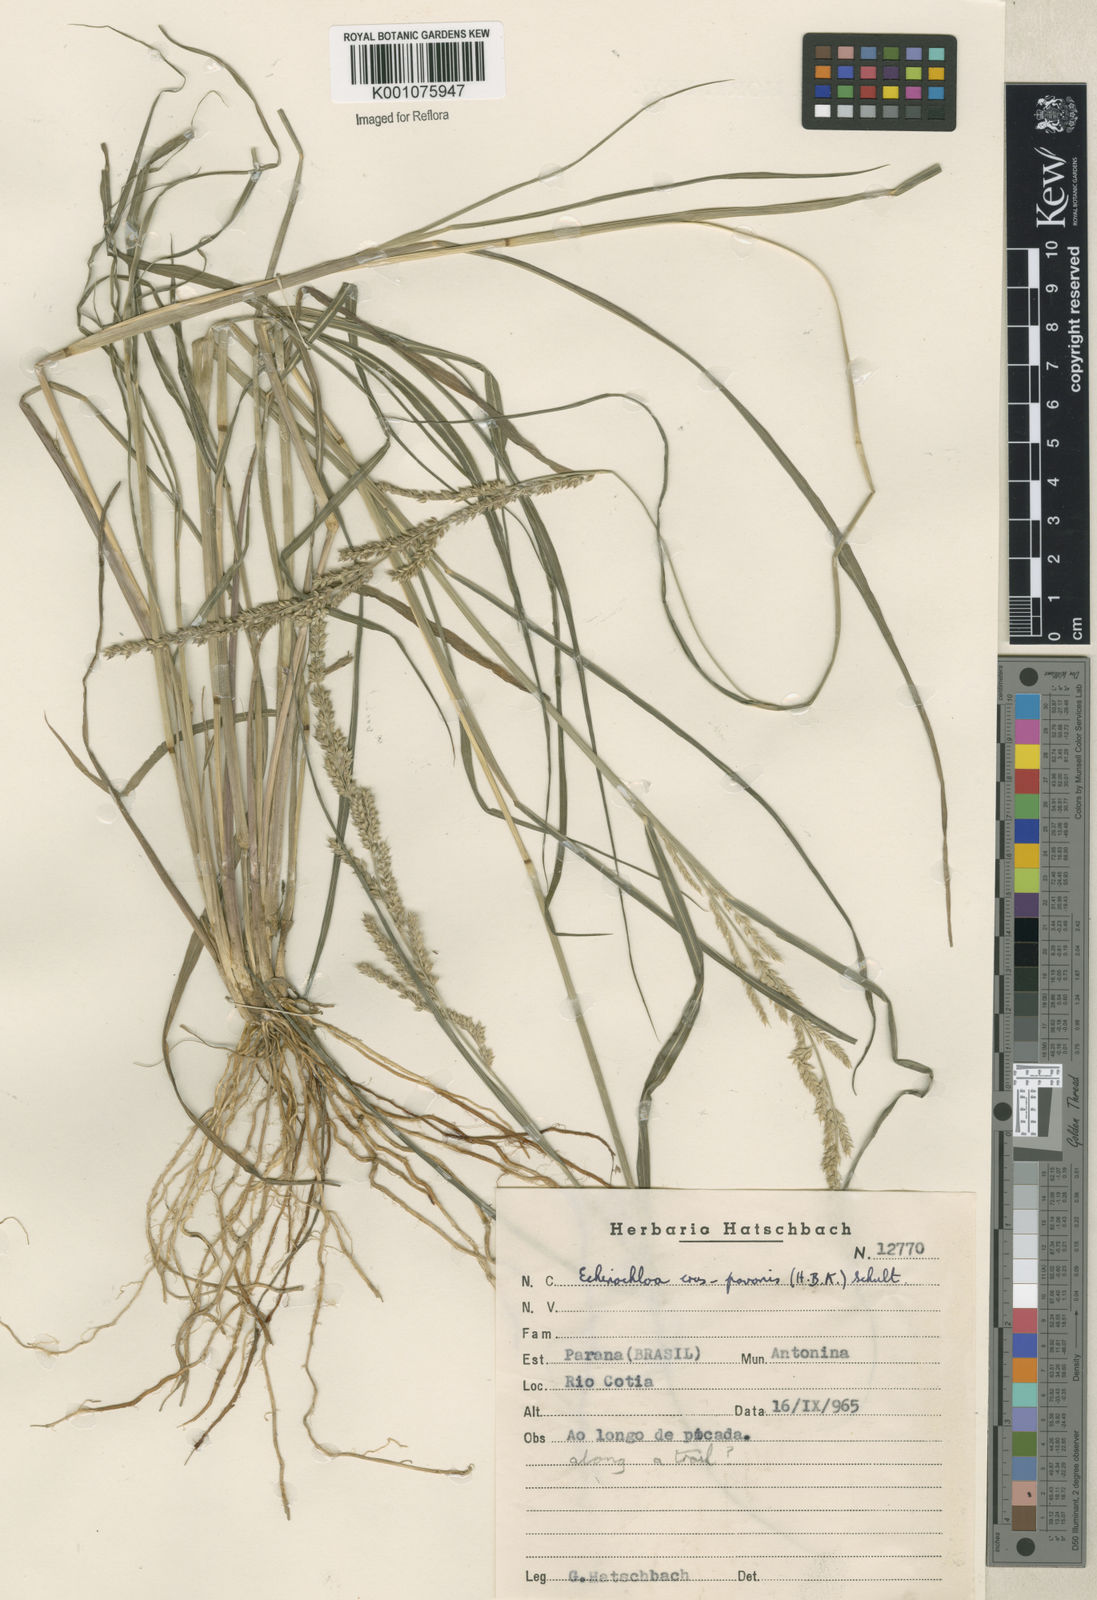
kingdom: Plantae
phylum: Tracheophyta
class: Liliopsida
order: Poales
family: Poaceae
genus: Echinochloa
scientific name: Echinochloa crus-pavonis
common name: Gulf cockspur grass
